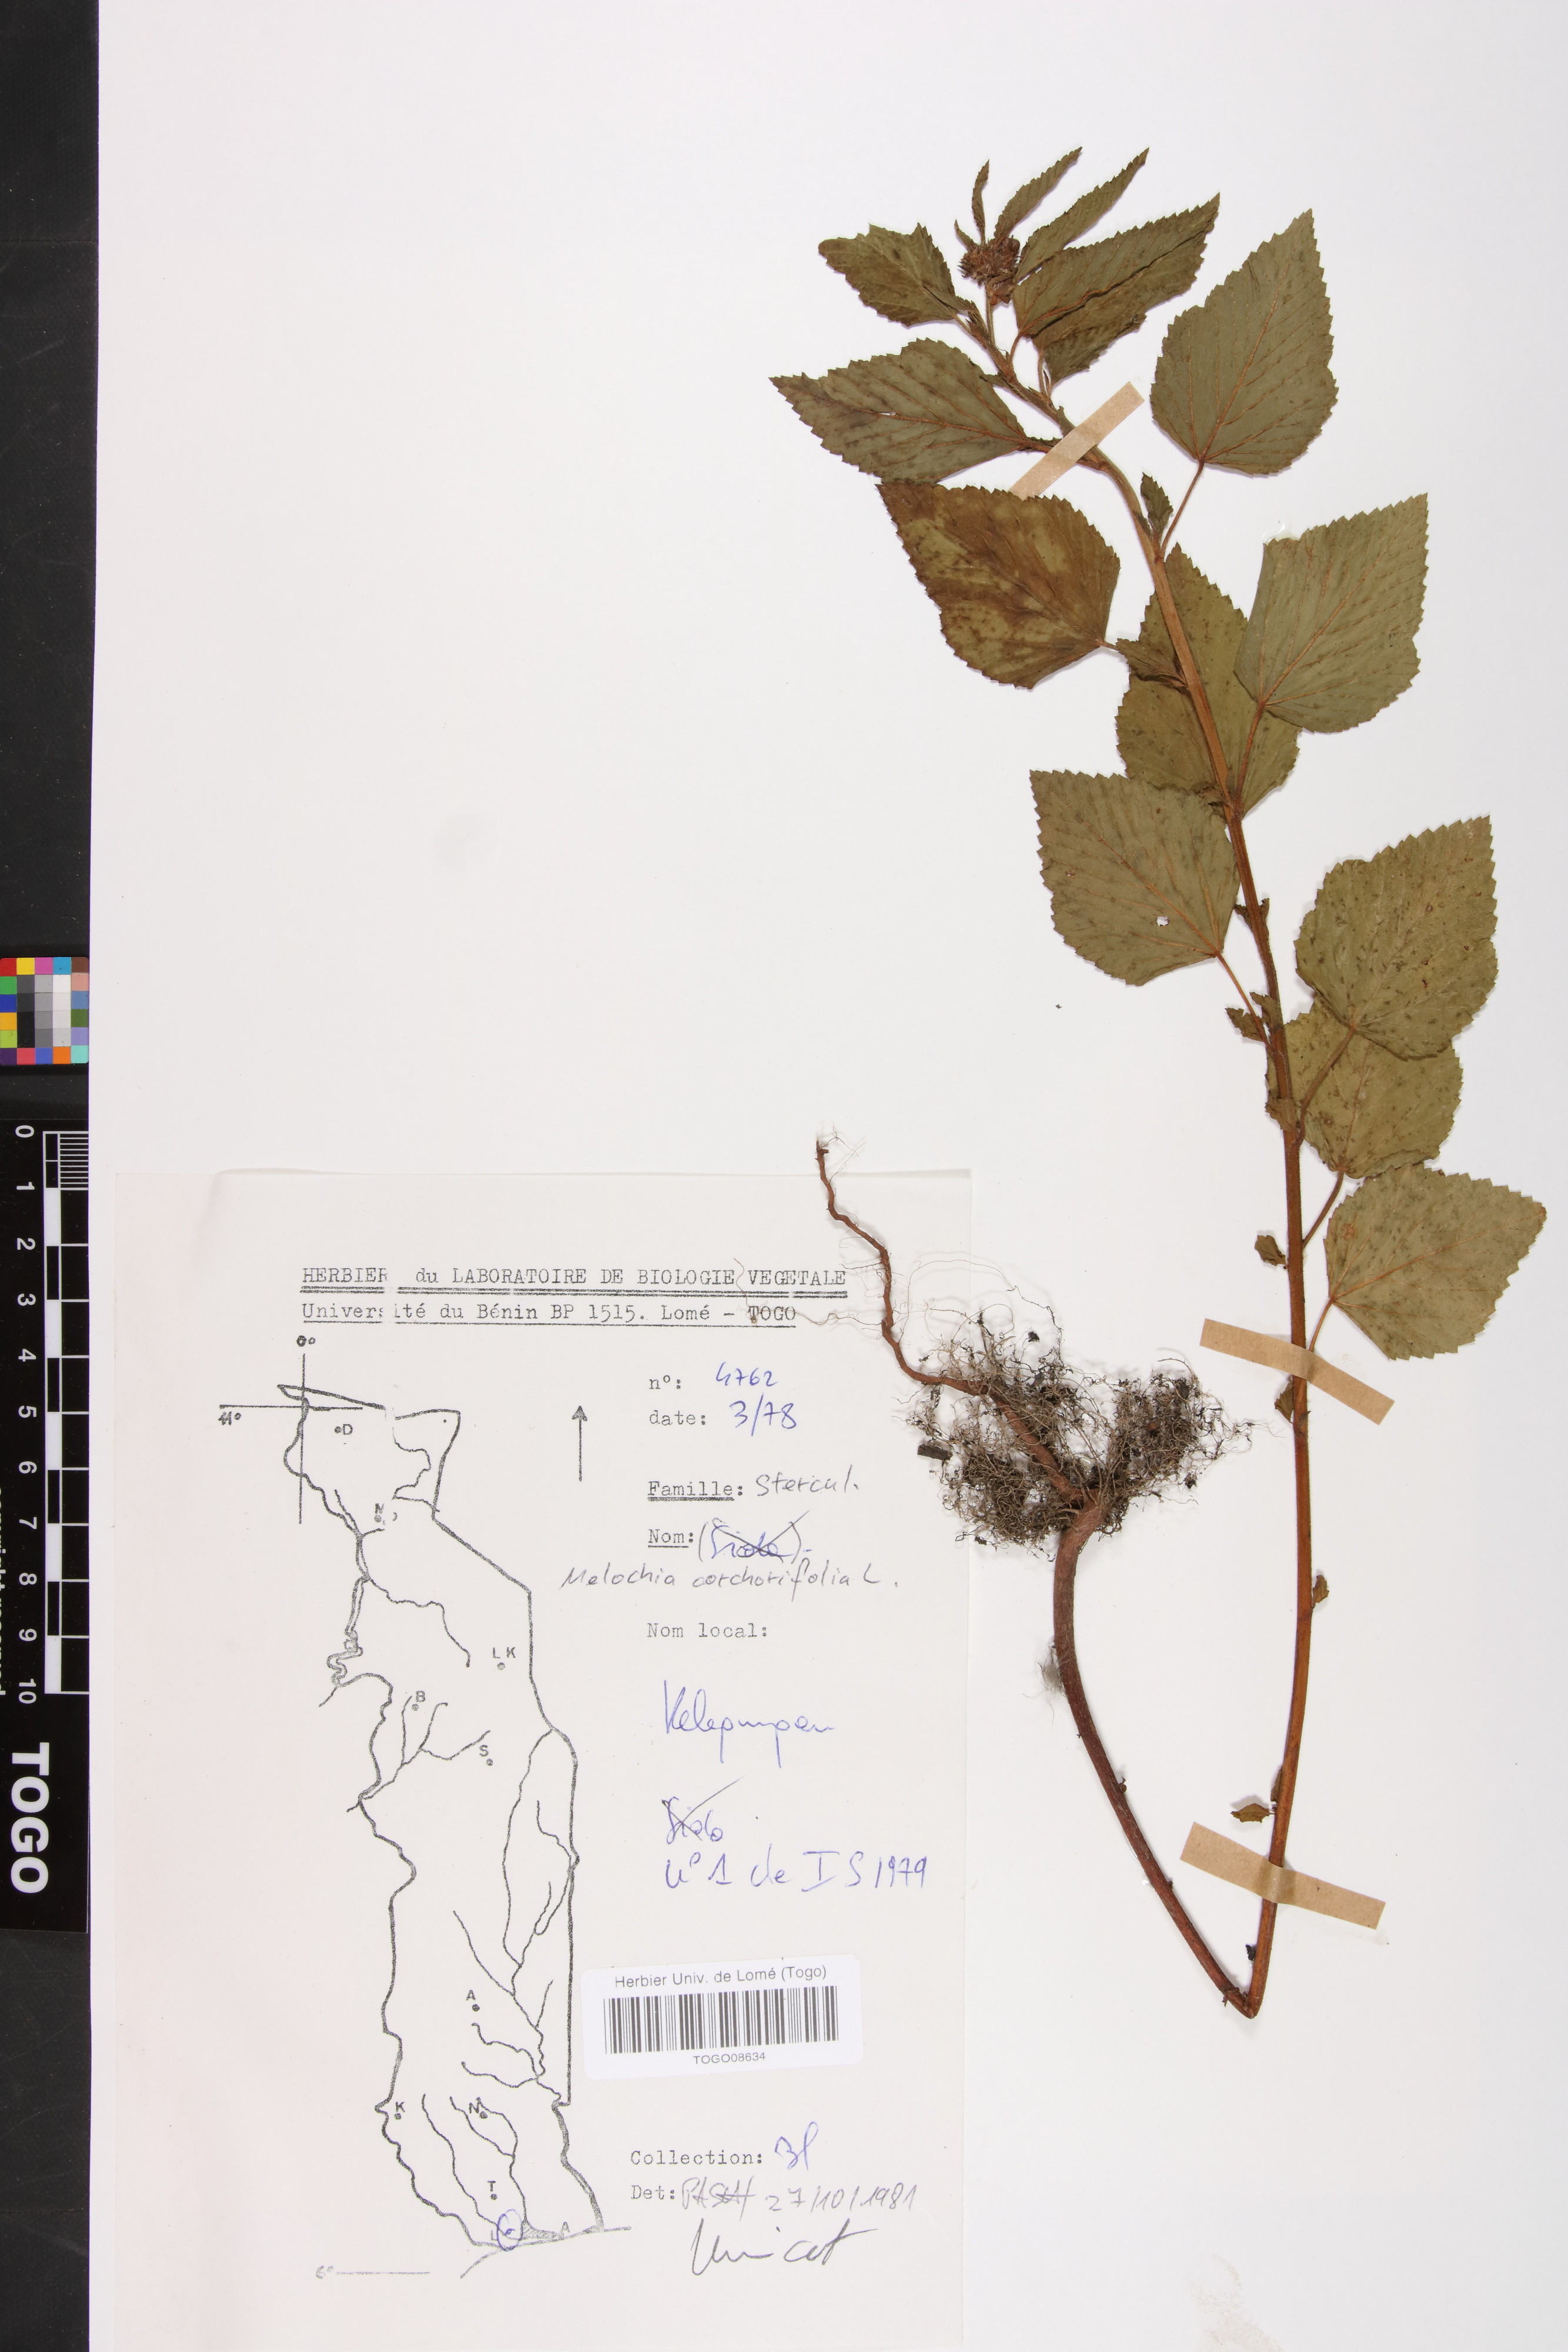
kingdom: Plantae
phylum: Tracheophyta
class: Magnoliopsida
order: Malvales
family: Malvaceae
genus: Melochia
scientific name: Melochia corchorifolia
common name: Chocolateweed
